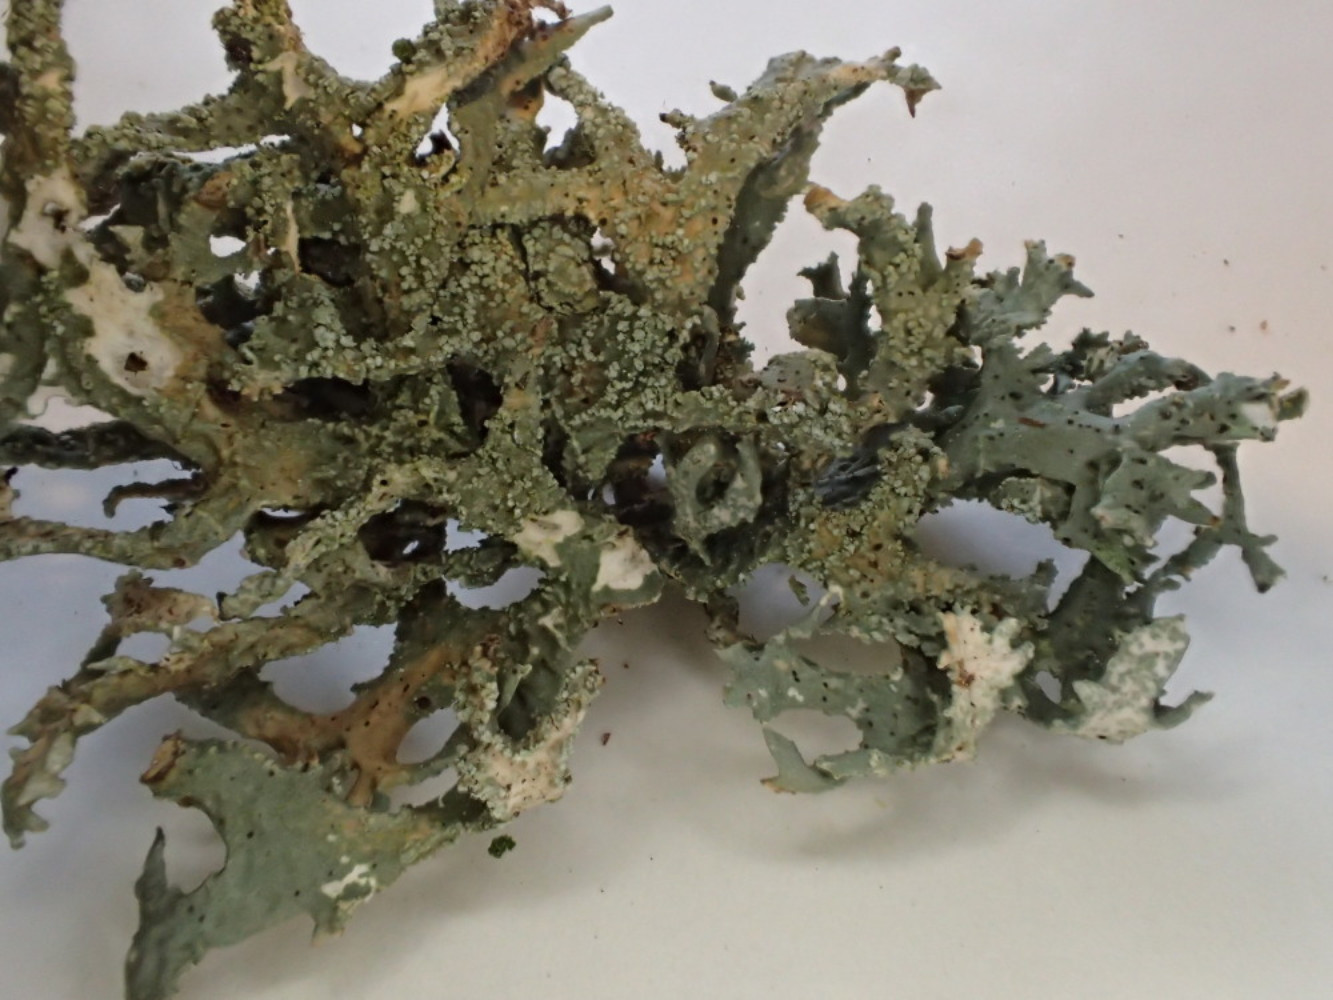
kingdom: Fungi
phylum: Ascomycota
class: Lecanoromycetes
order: Lecanorales
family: Parmeliaceae
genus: Evernia
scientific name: Evernia prunastri
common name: almindelig slåenlav
